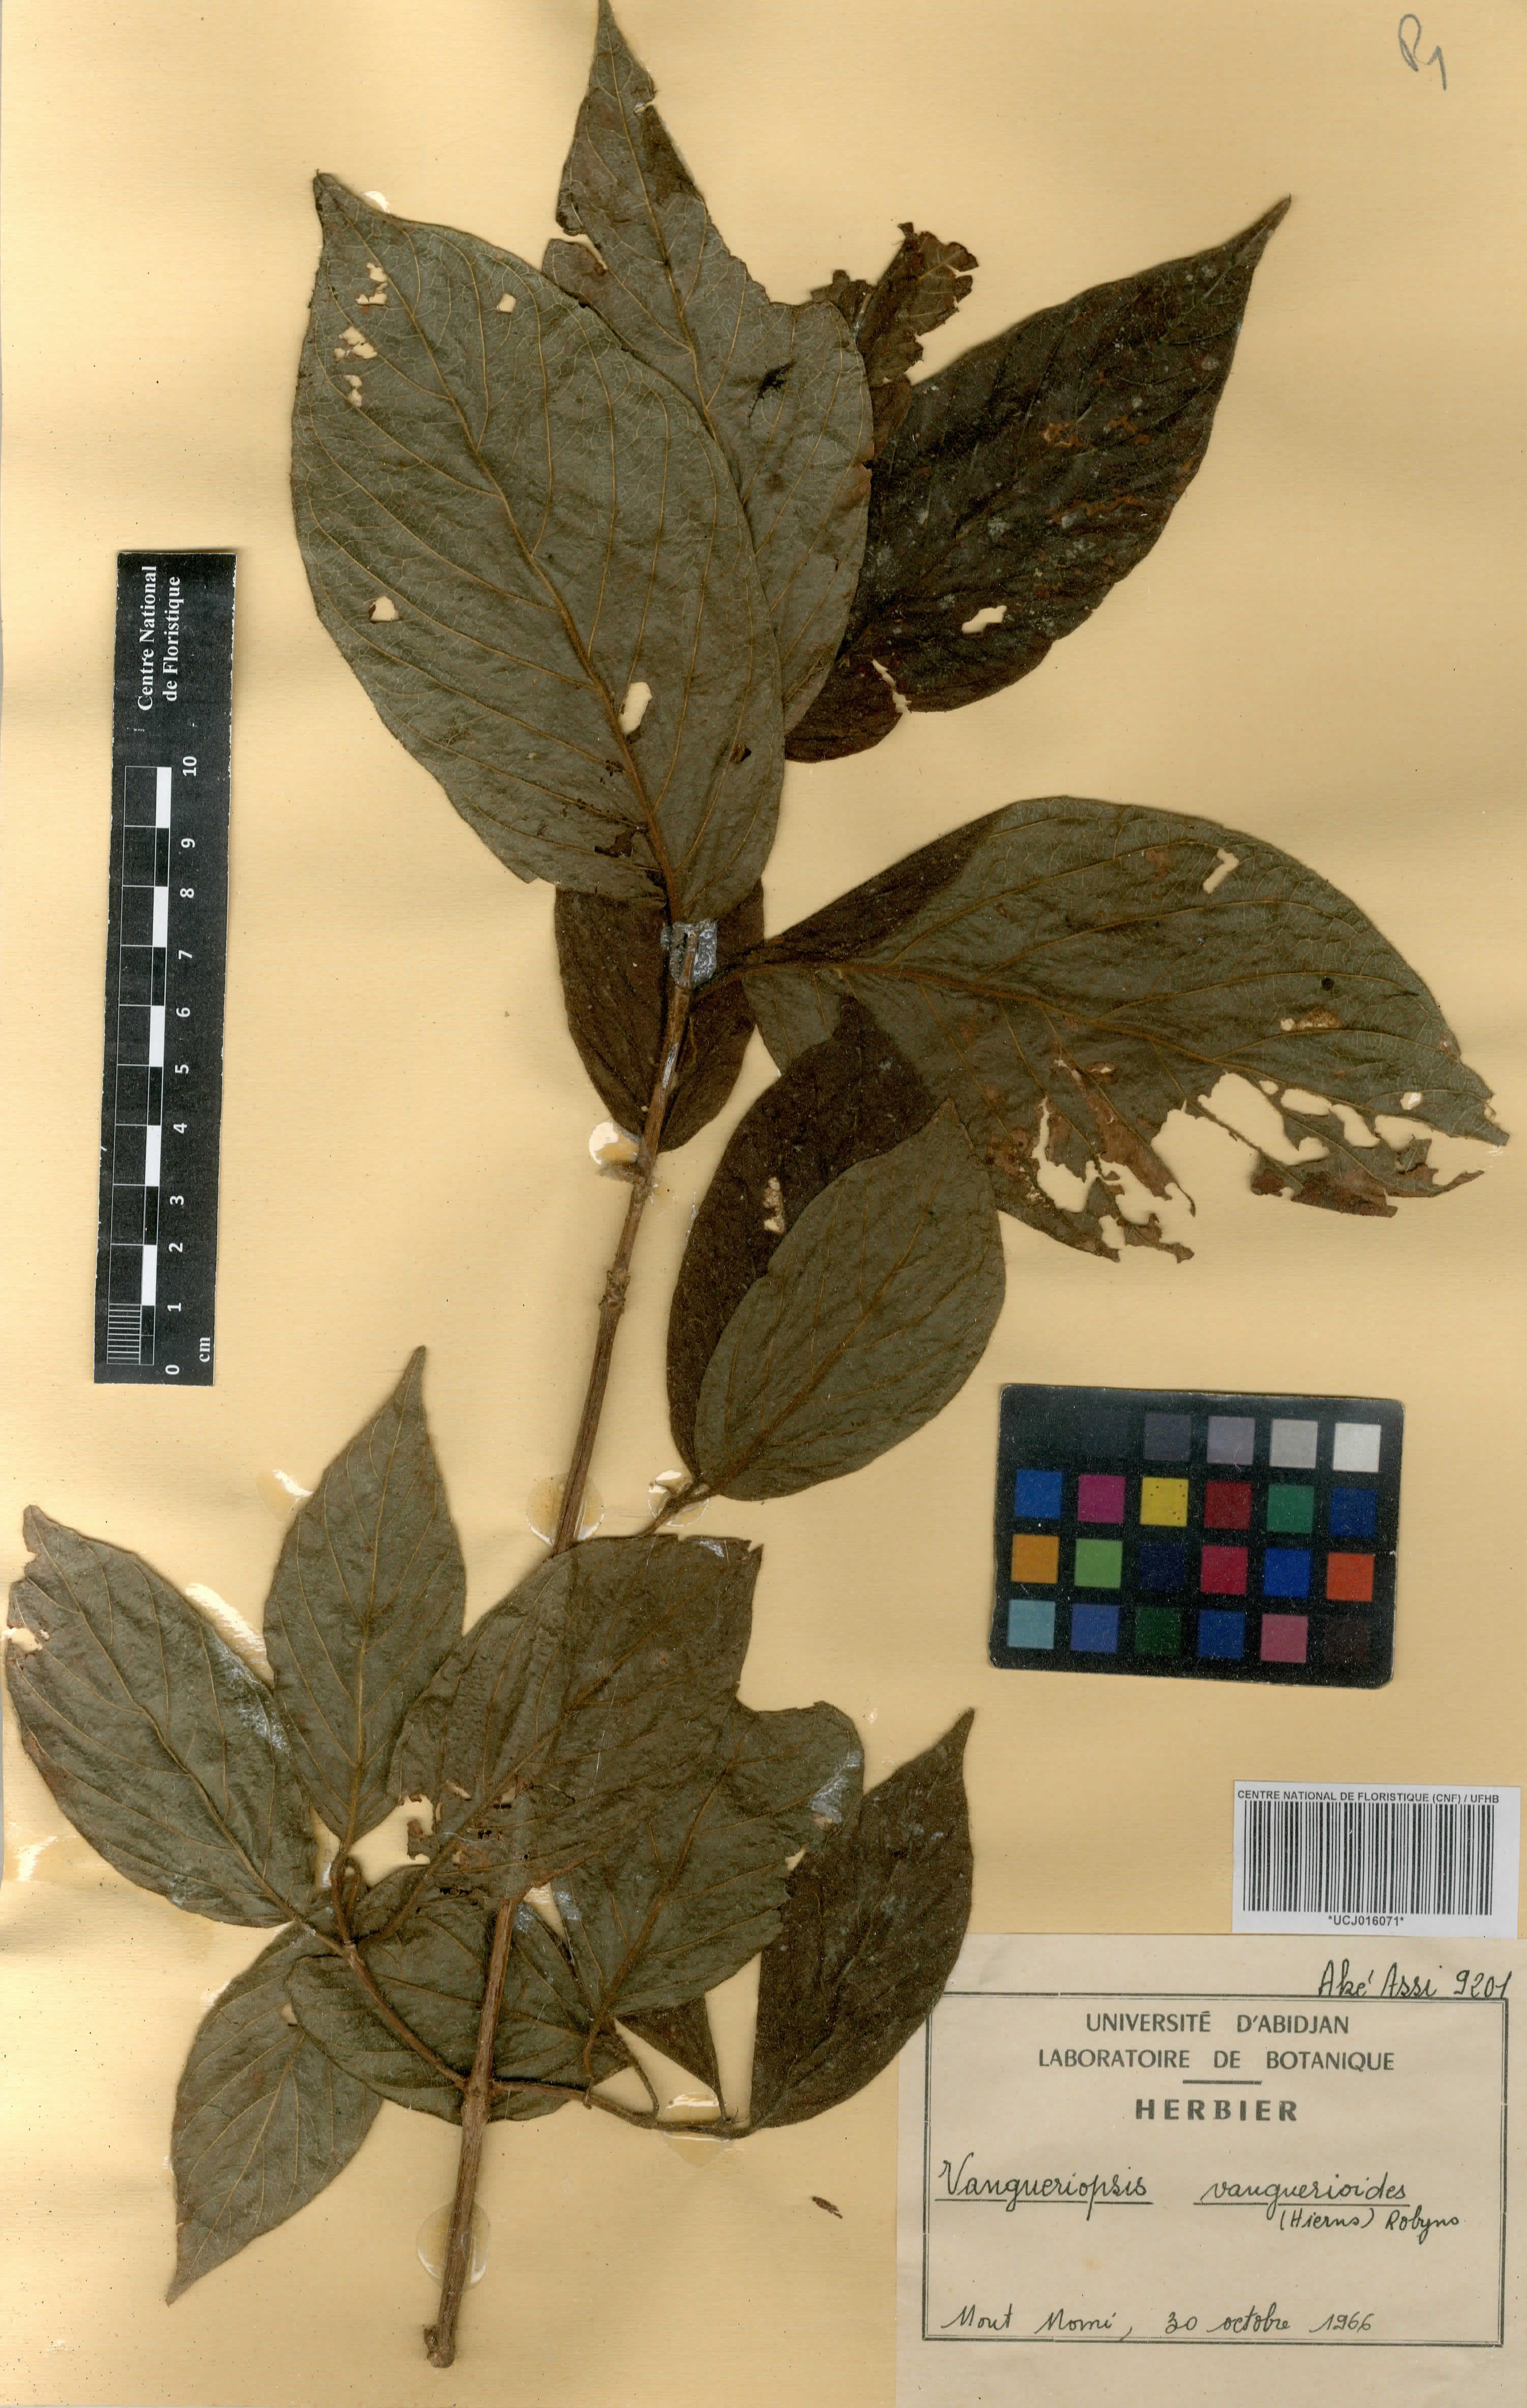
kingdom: Plantae
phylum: Tracheophyta
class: Magnoliopsida
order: Gentianales
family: Rubiaceae
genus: Vangueriella
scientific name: Vangueriella vanguerioides
